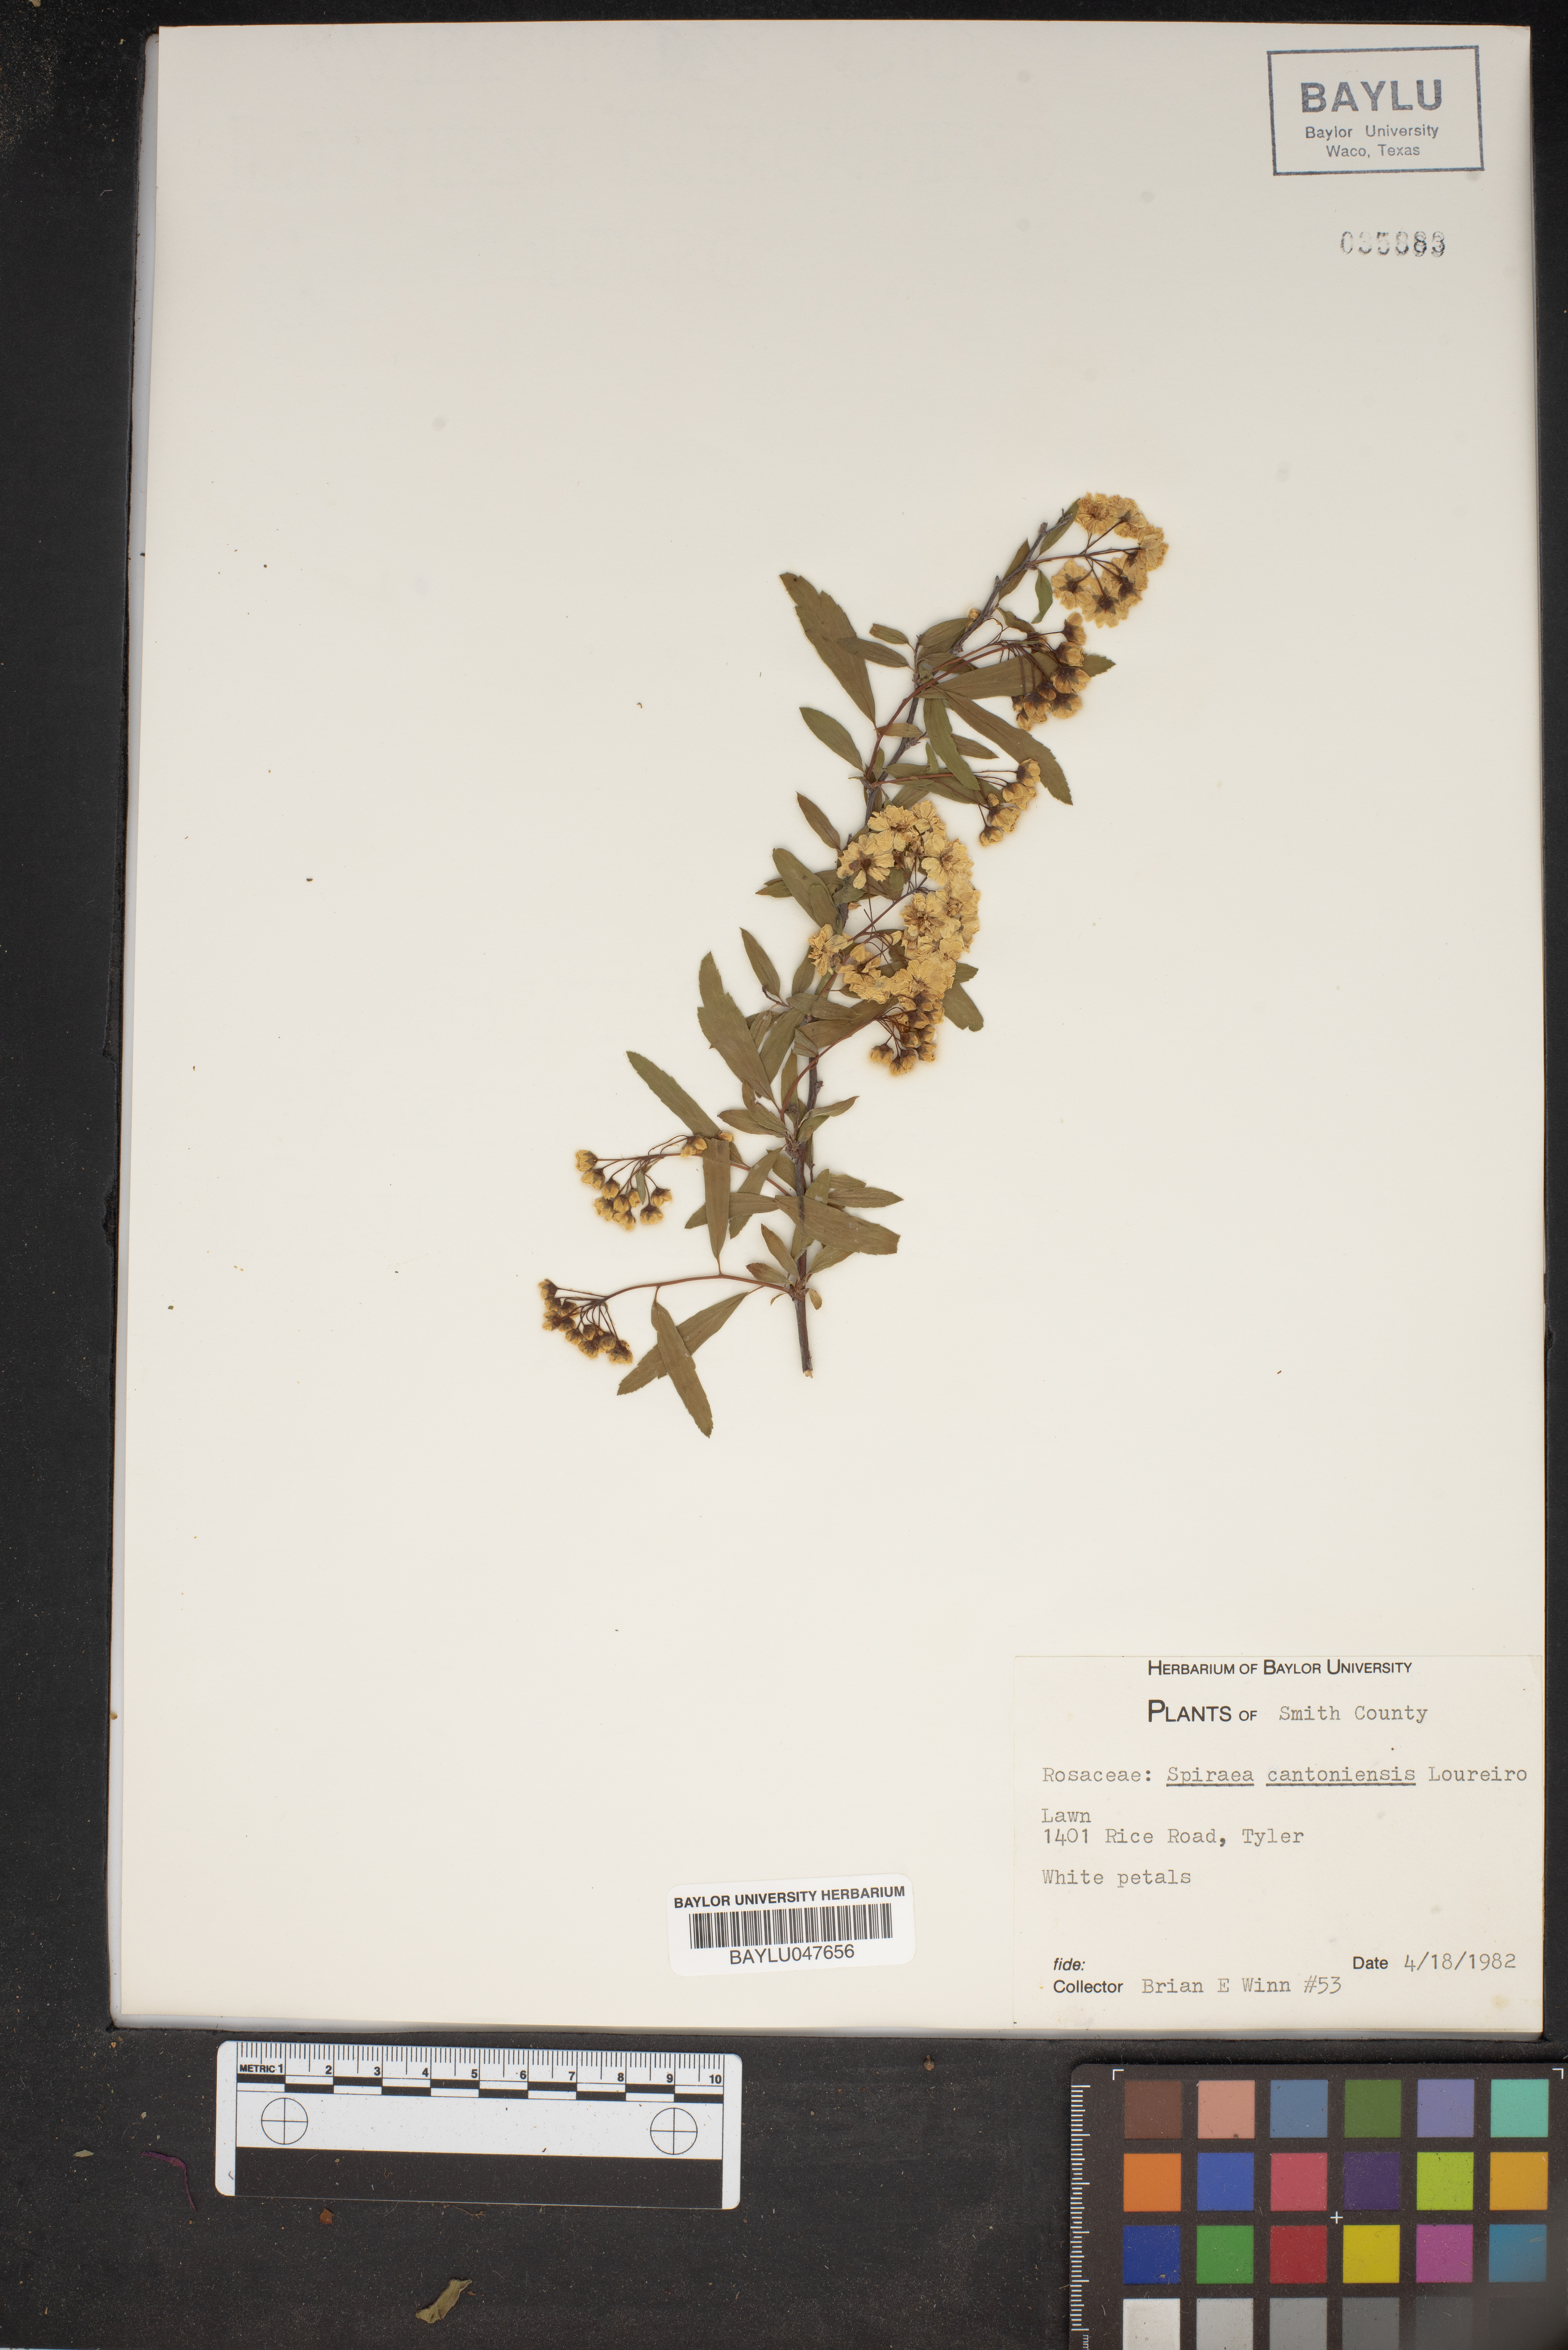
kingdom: Plantae
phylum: Tracheophyta
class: Magnoliopsida
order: Rosales
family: Rosaceae
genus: Spiraea
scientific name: Spiraea cantoniensis
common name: Reeves' meadowsweet
